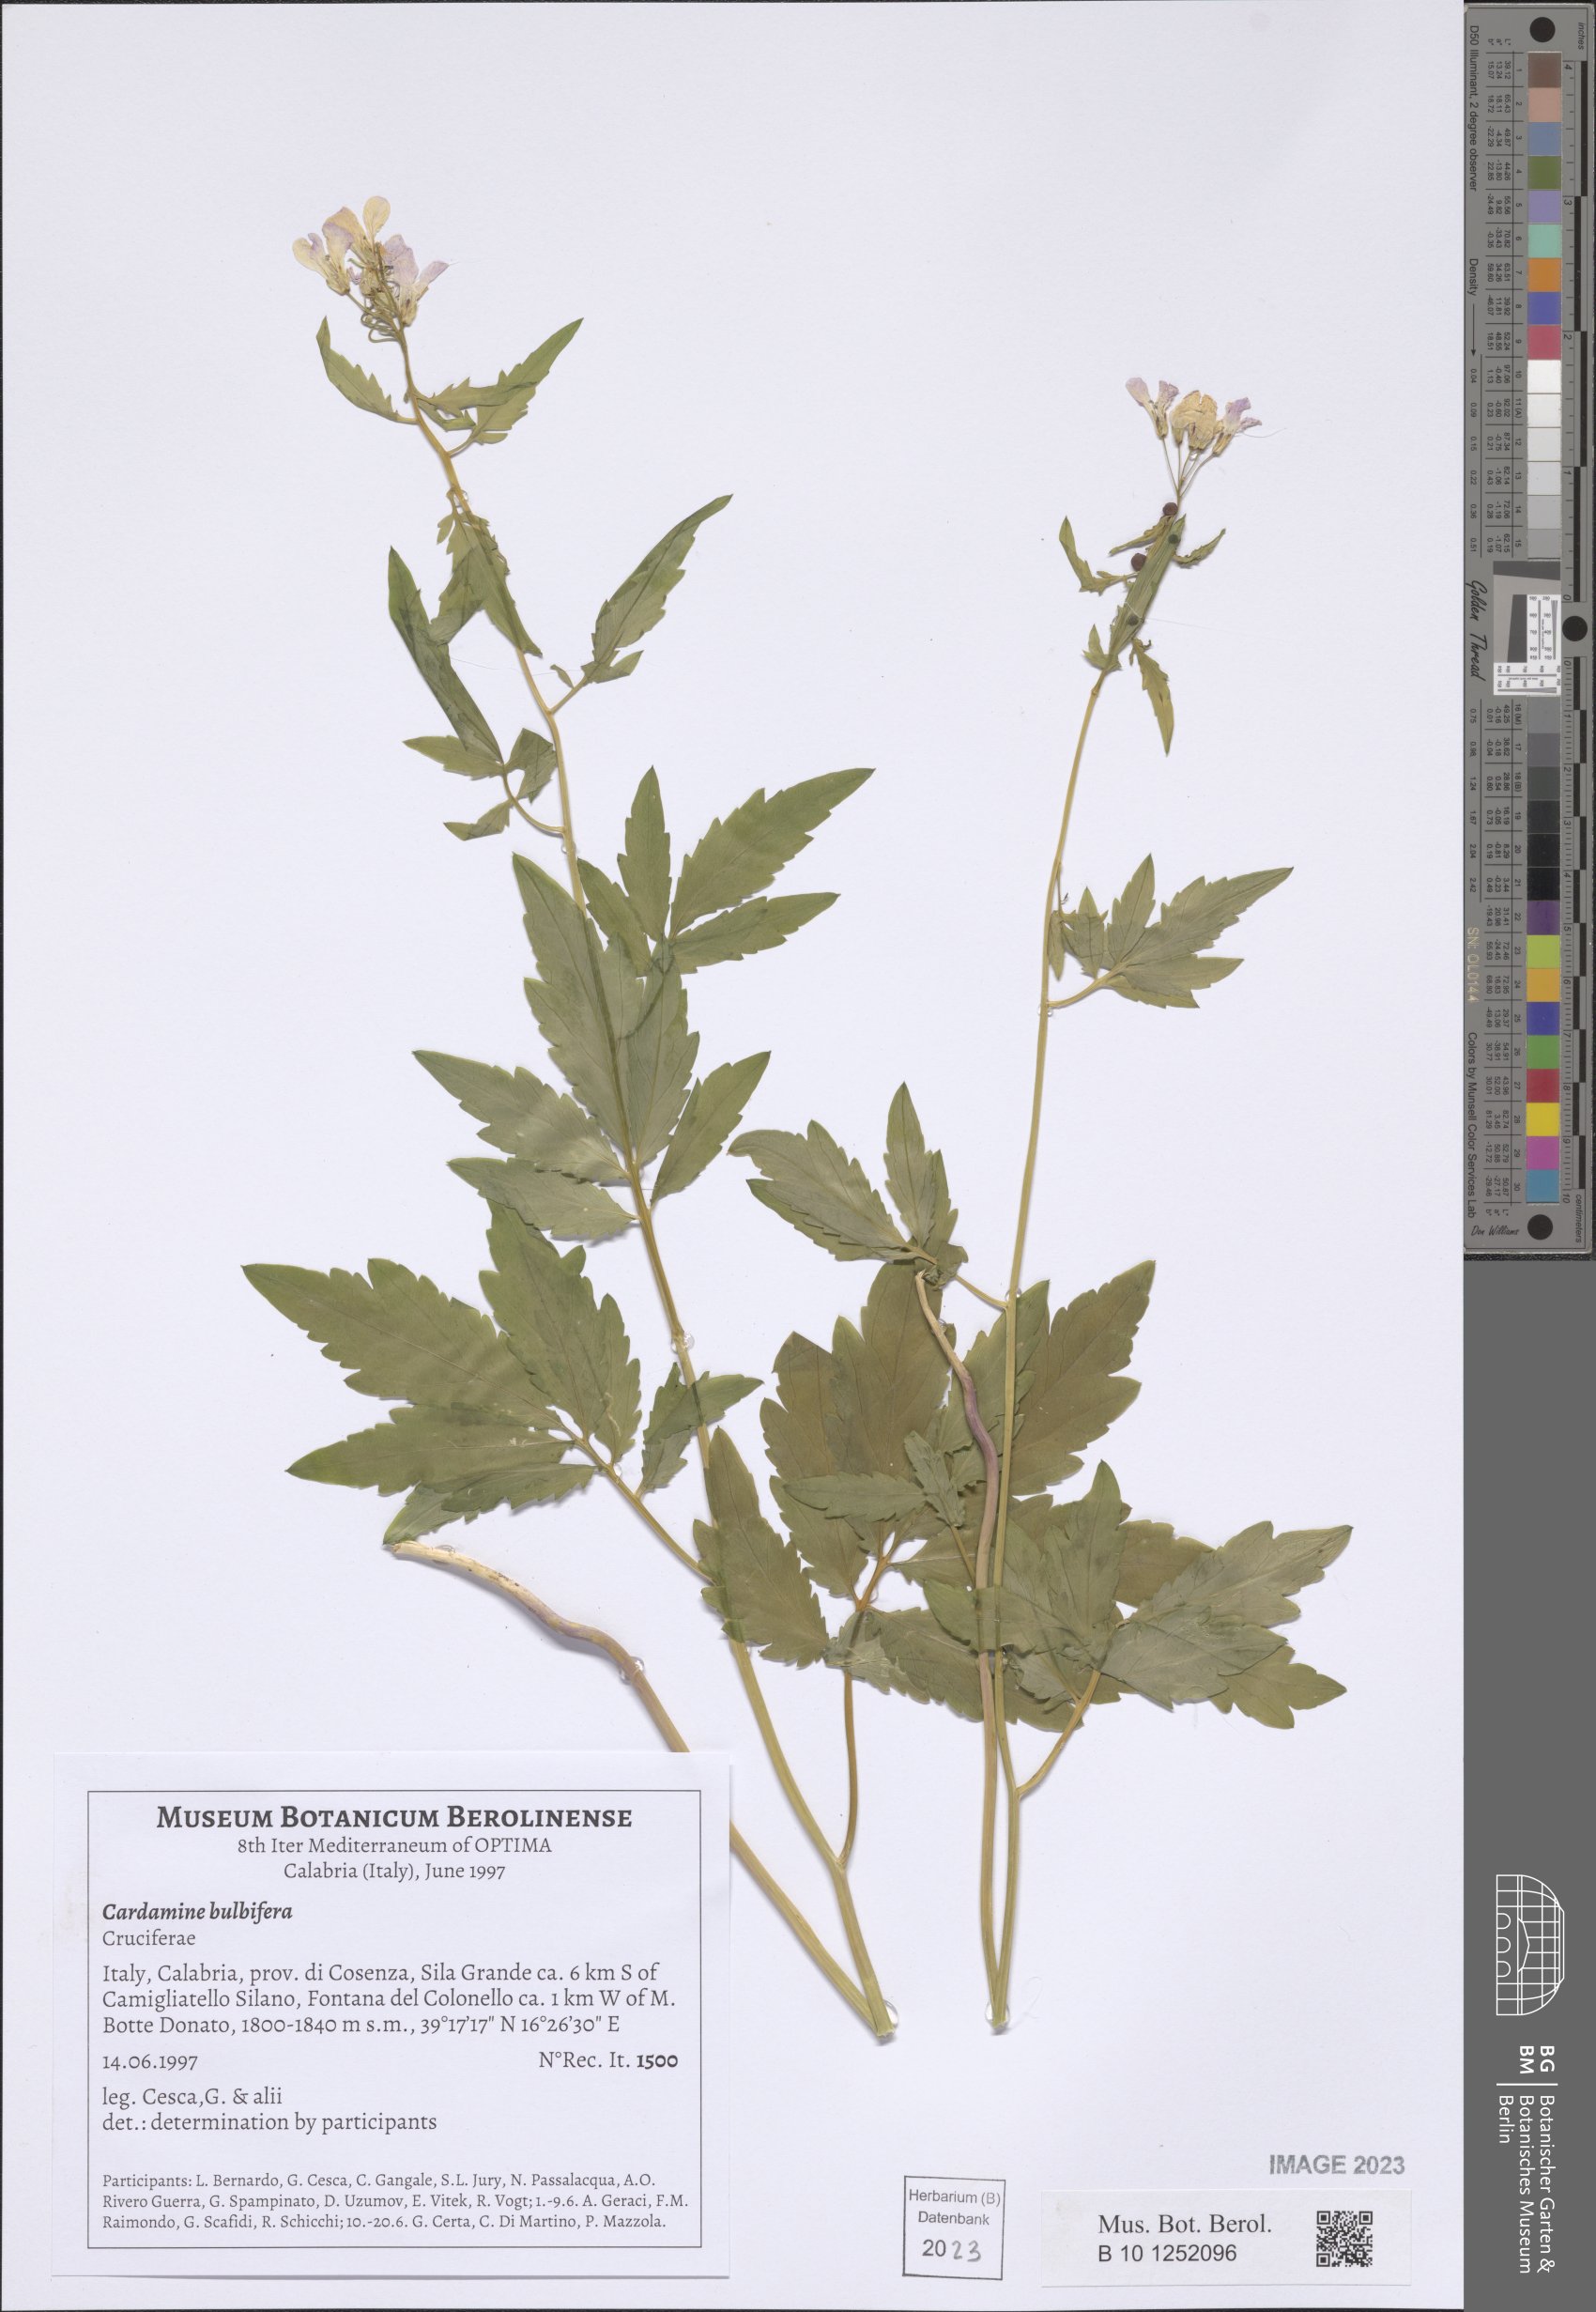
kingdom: Plantae
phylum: Tracheophyta
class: Magnoliopsida
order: Brassicales
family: Brassicaceae
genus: Cardamine
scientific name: Cardamine bulbifera
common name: Coralroot bittercress
